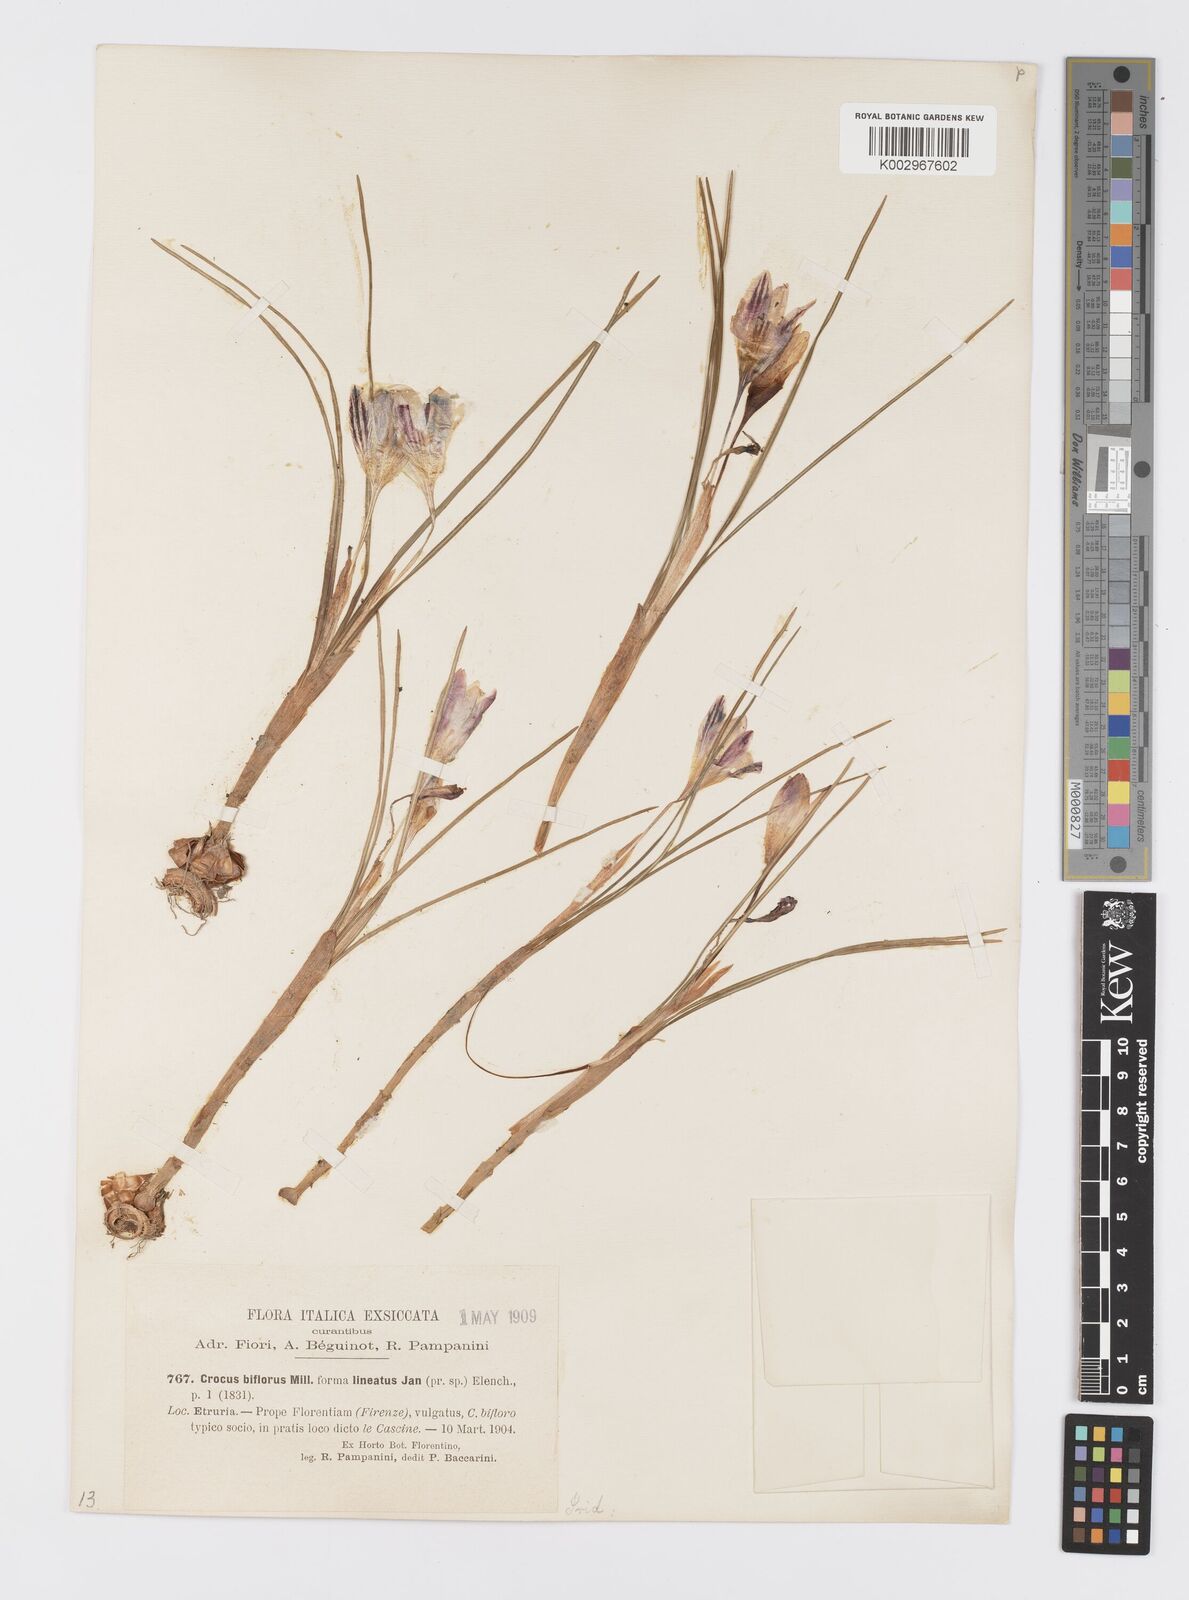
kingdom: Plantae
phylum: Tracheophyta
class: Liliopsida
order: Asparagales
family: Iridaceae
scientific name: Iridaceae
